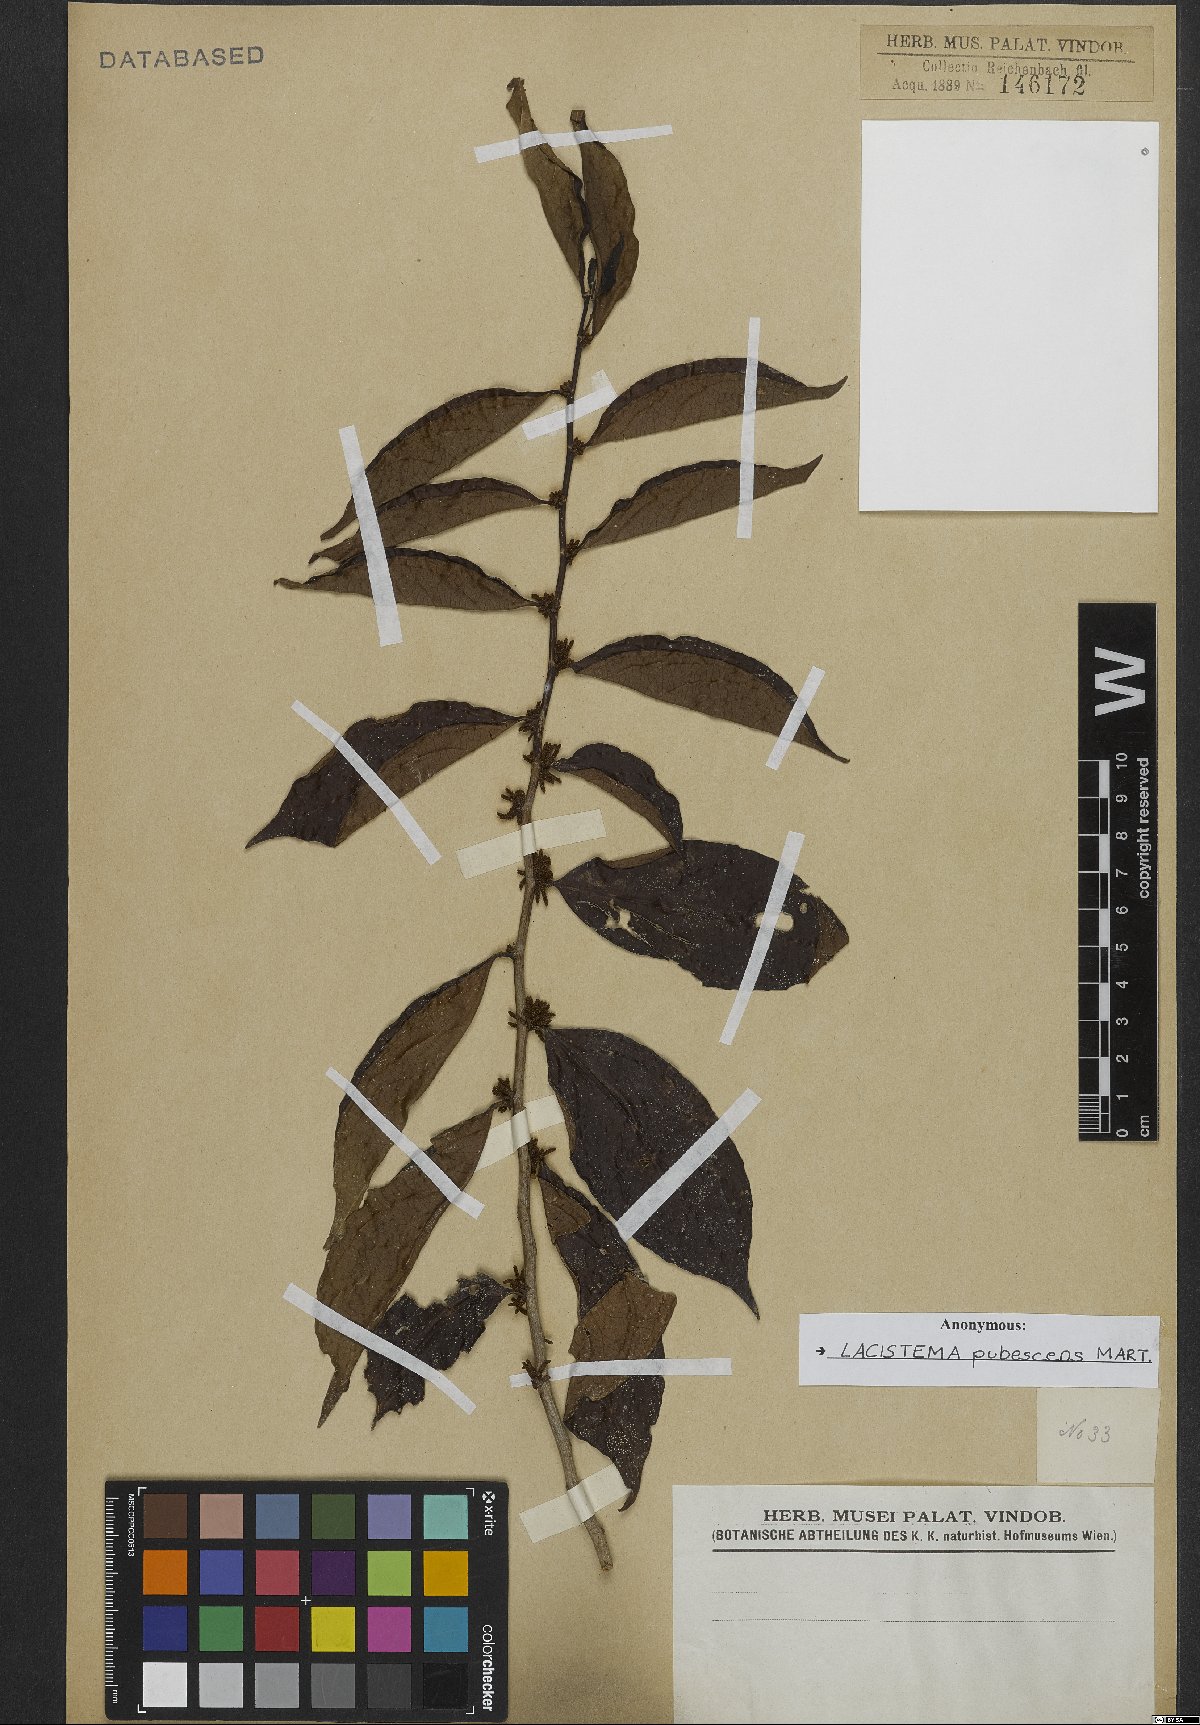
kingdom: Plantae
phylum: Tracheophyta
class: Magnoliopsida
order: Malpighiales
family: Lacistemataceae
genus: Lacistema
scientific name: Lacistema pubescens
